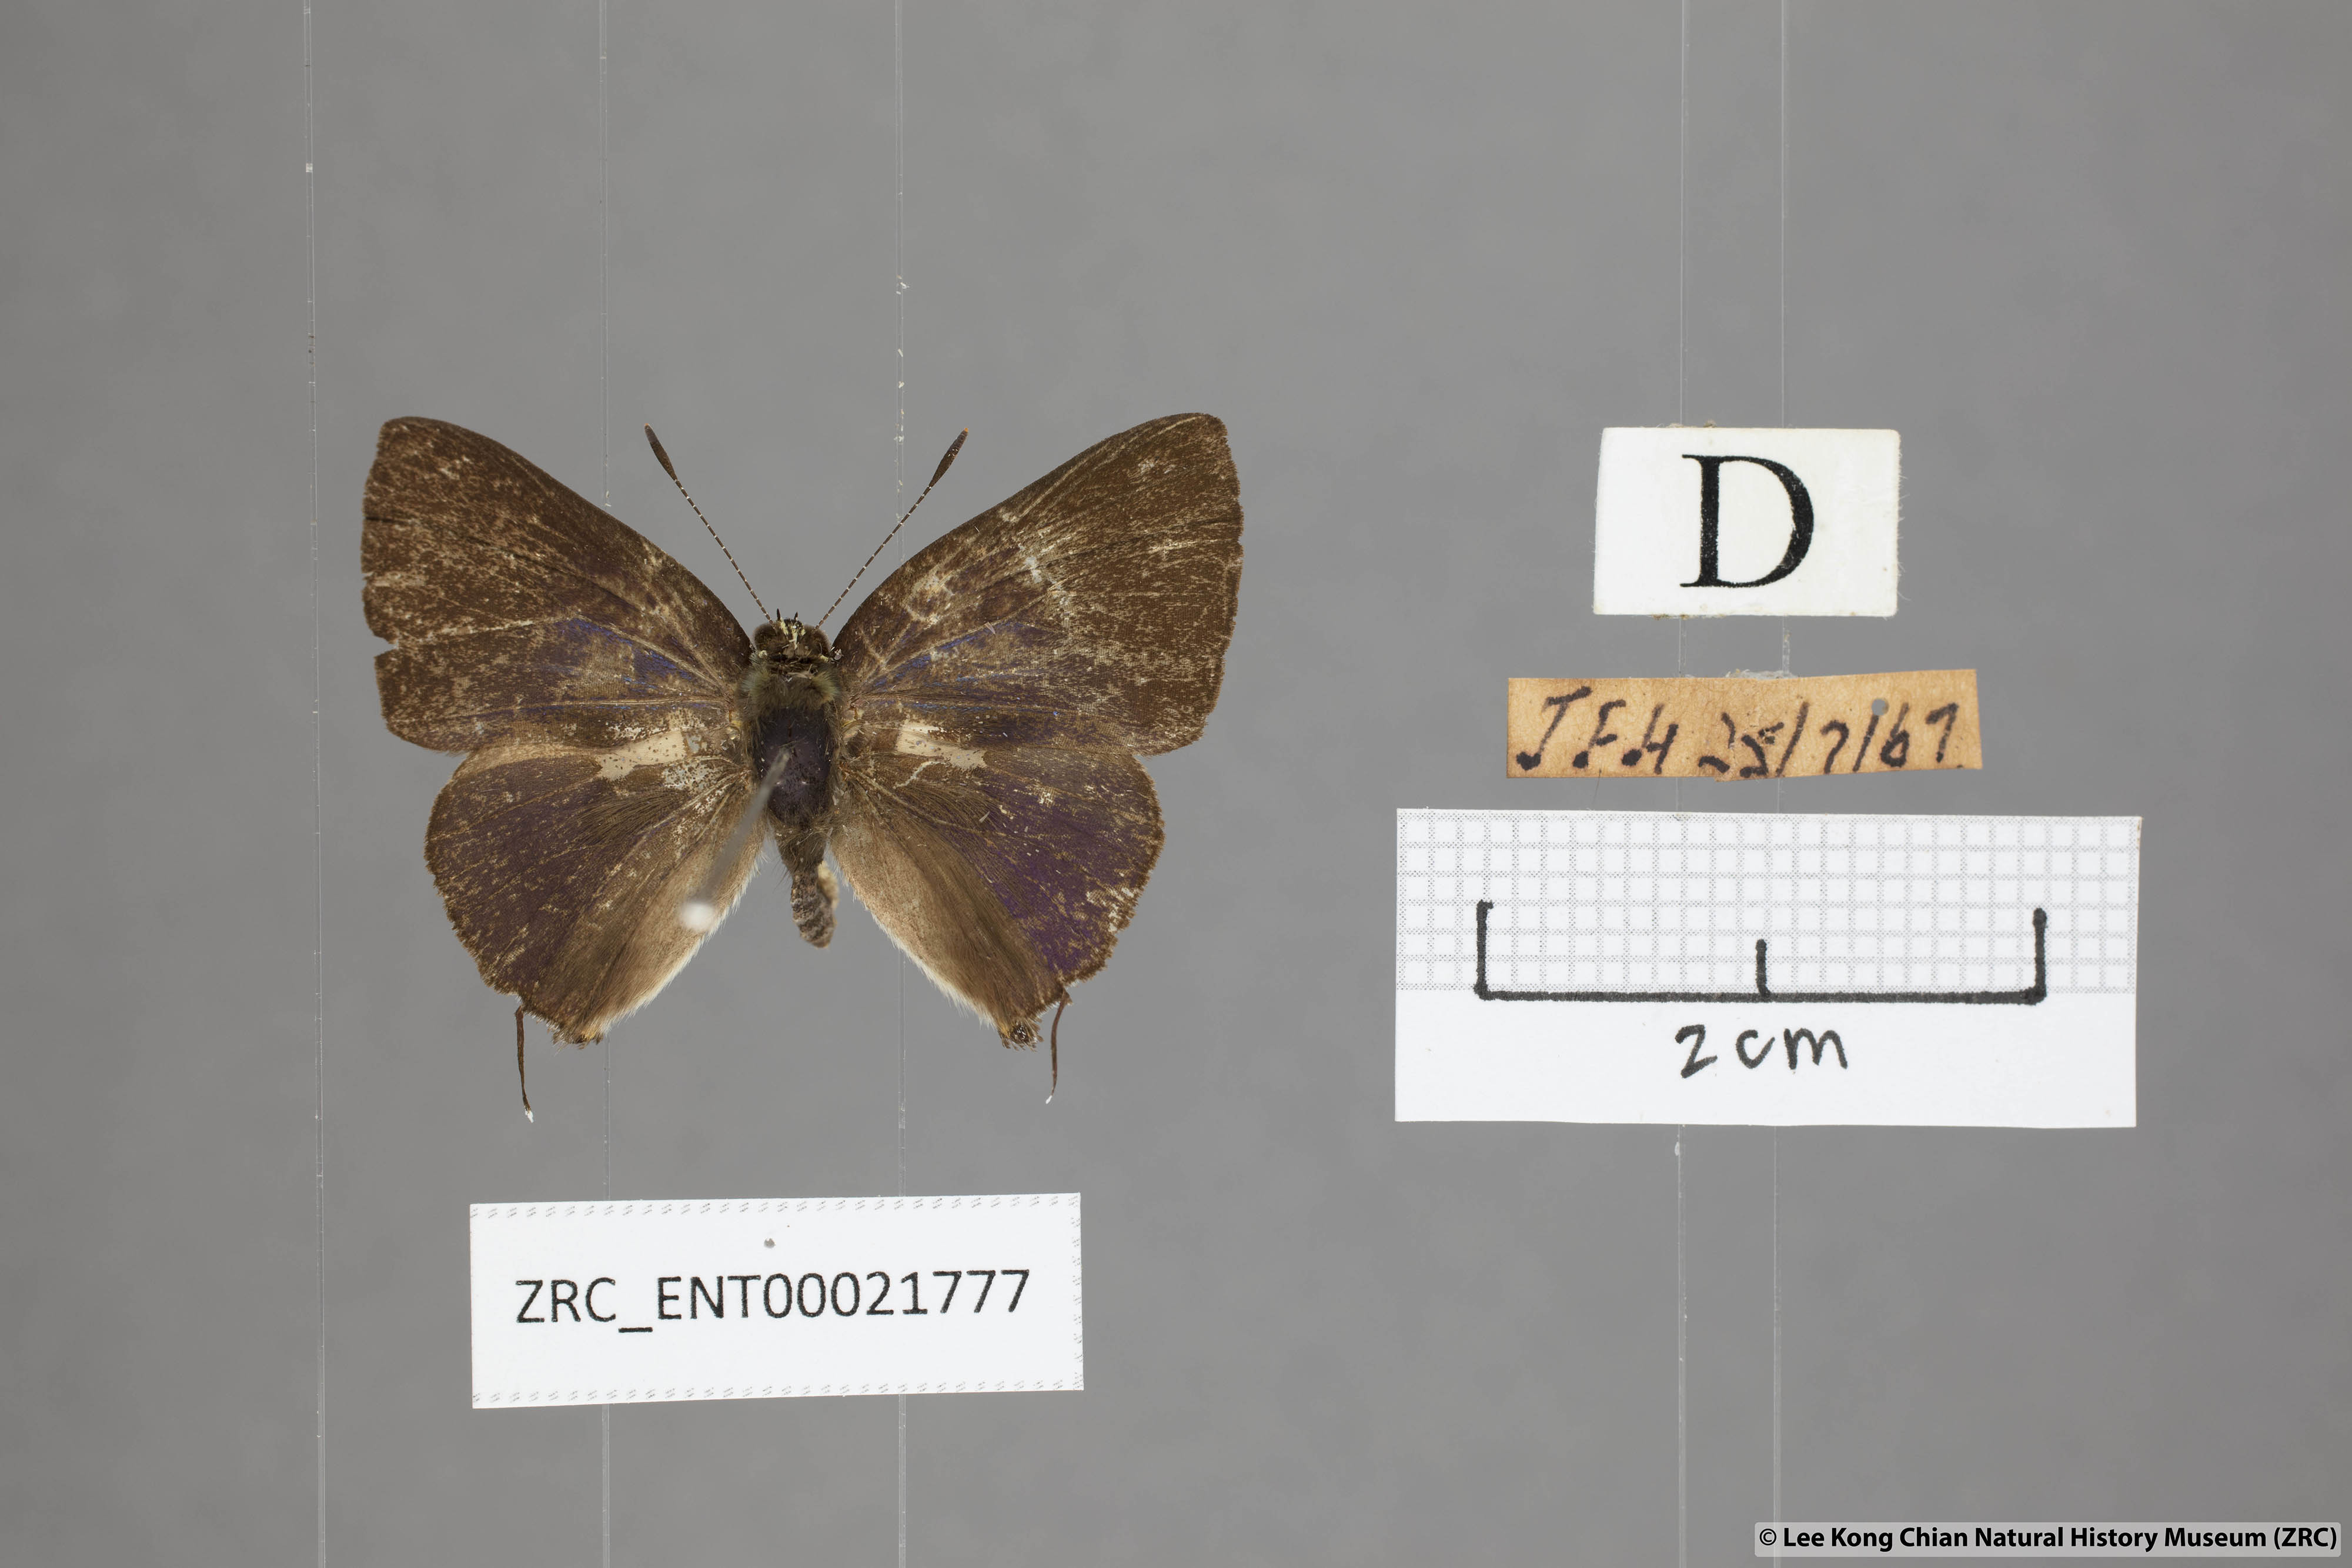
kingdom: Animalia
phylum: Arthropoda
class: Insecta
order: Lepidoptera
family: Lycaenidae
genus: Rapala
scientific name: Rapala
